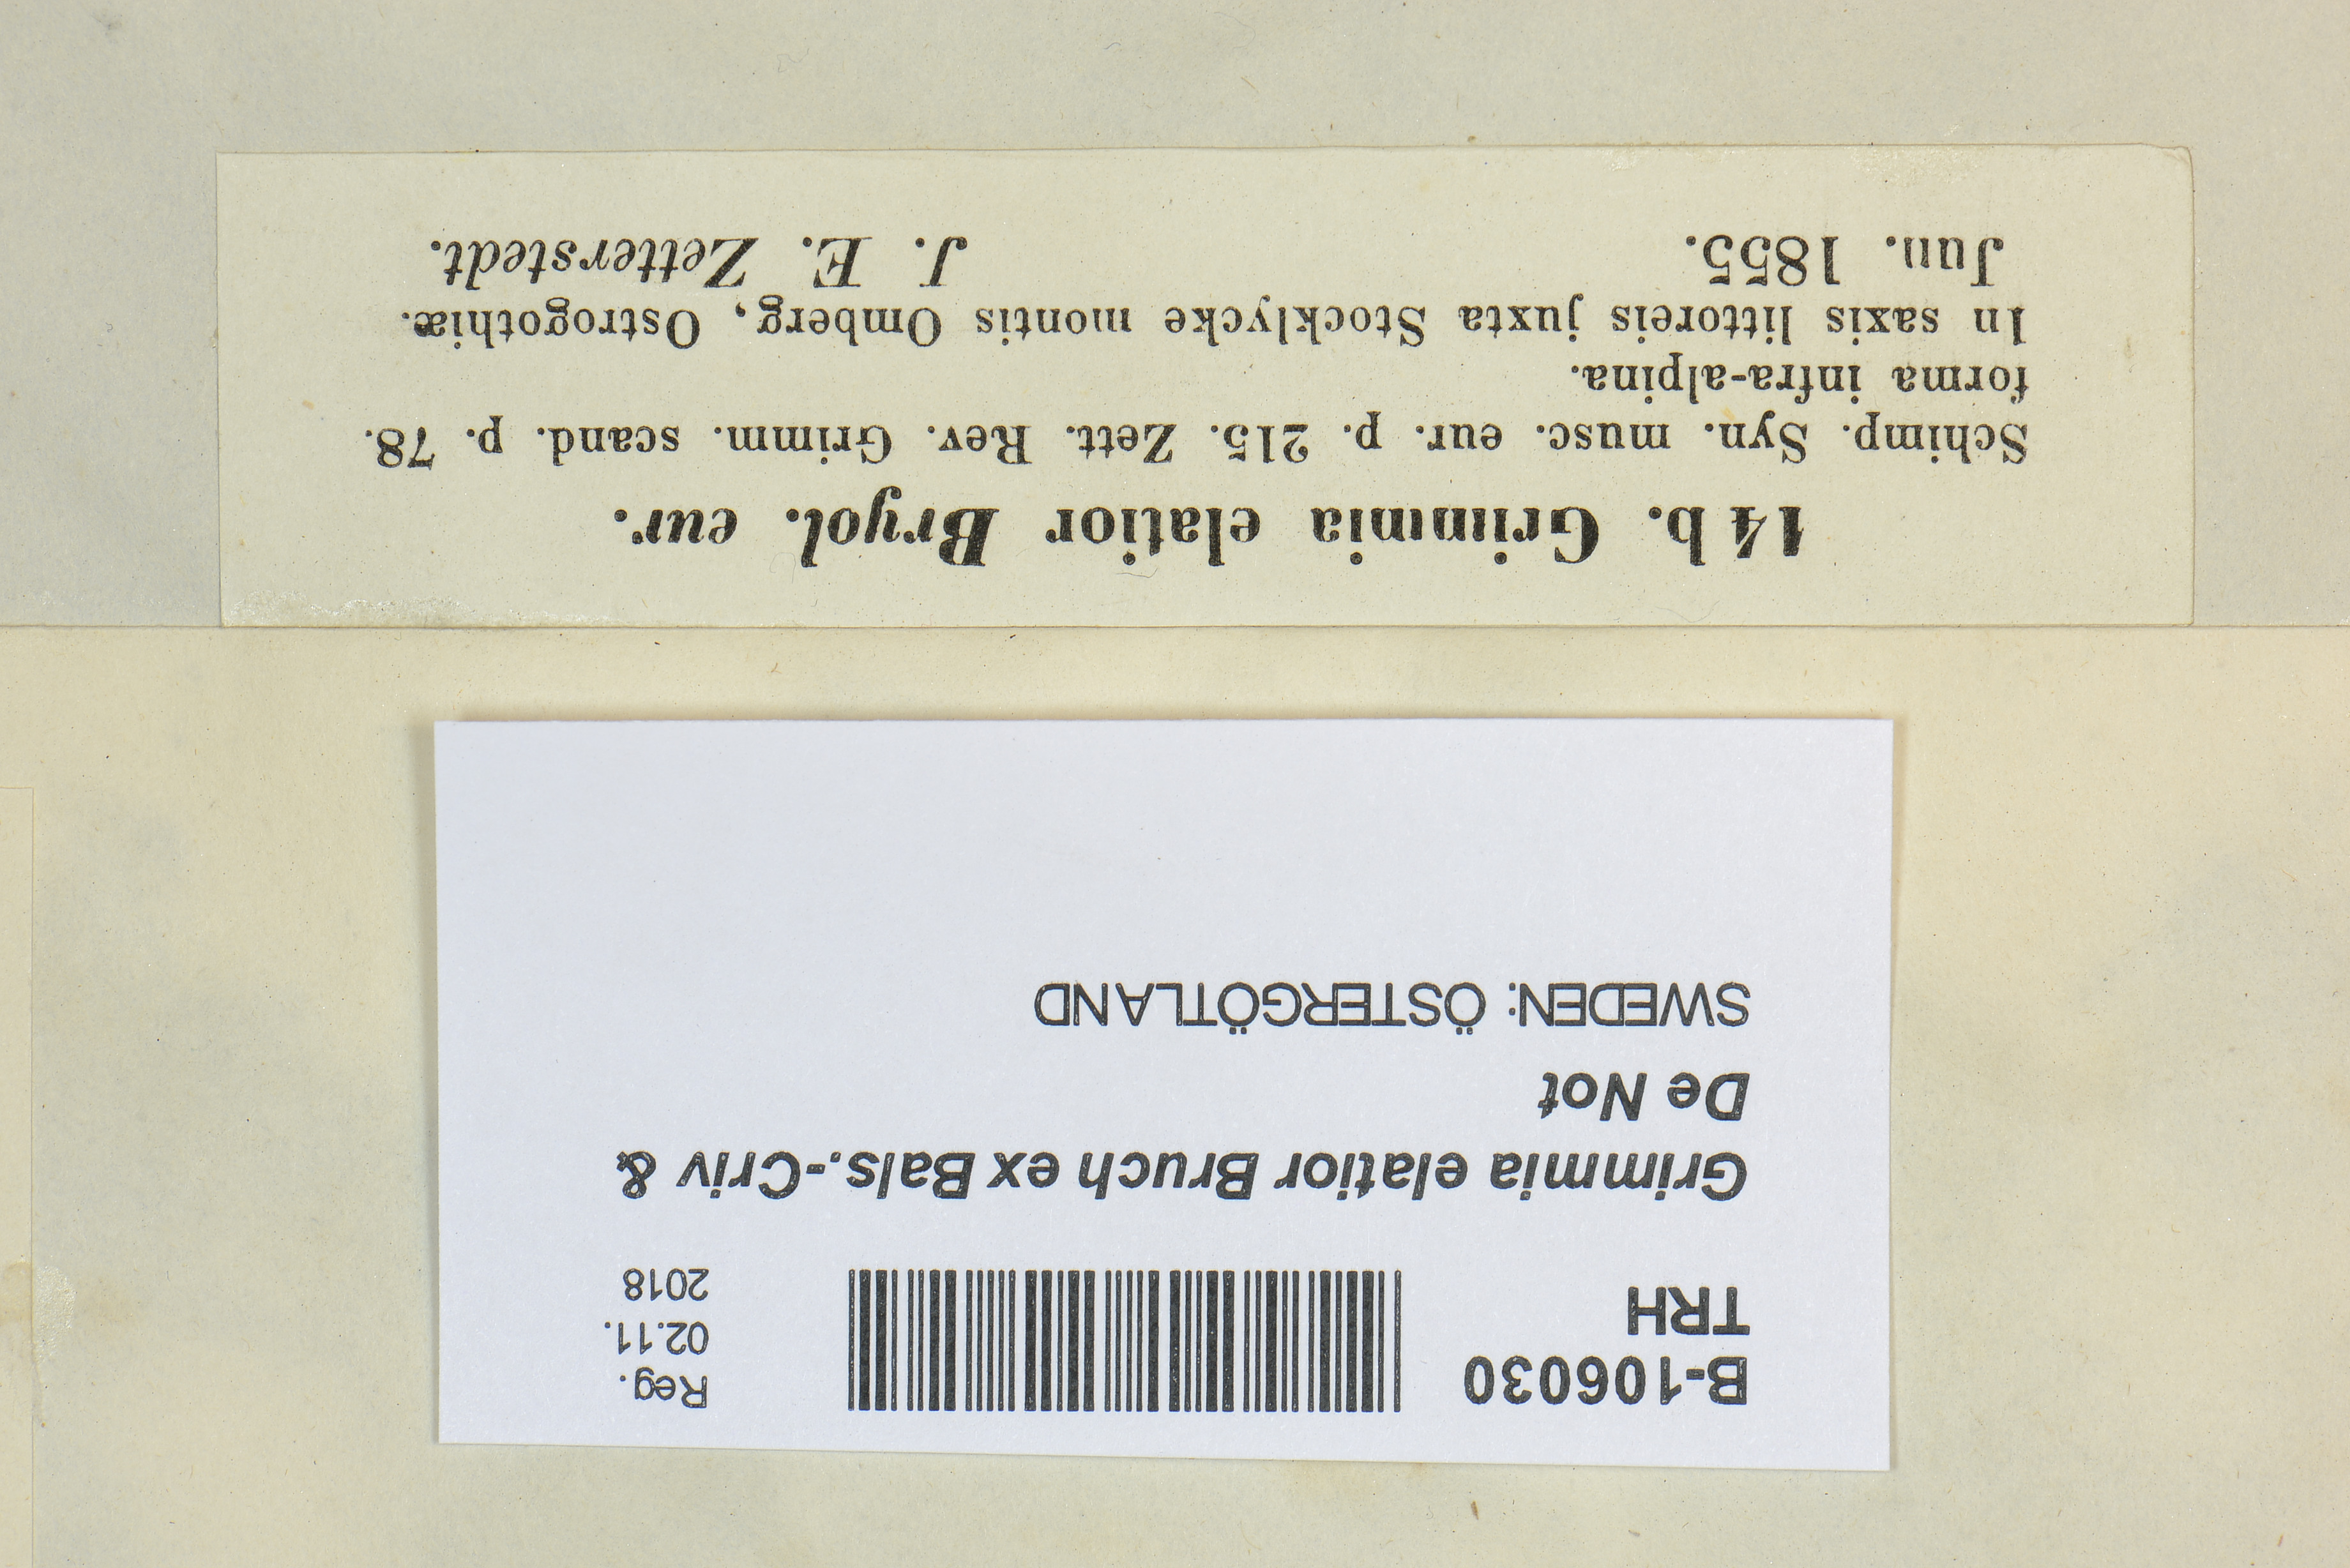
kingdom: Plantae
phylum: Bryophyta
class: Bryopsida
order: Grimmiales
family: Grimmiaceae
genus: Grimmia
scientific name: Grimmia elatior
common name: Large grimmia
